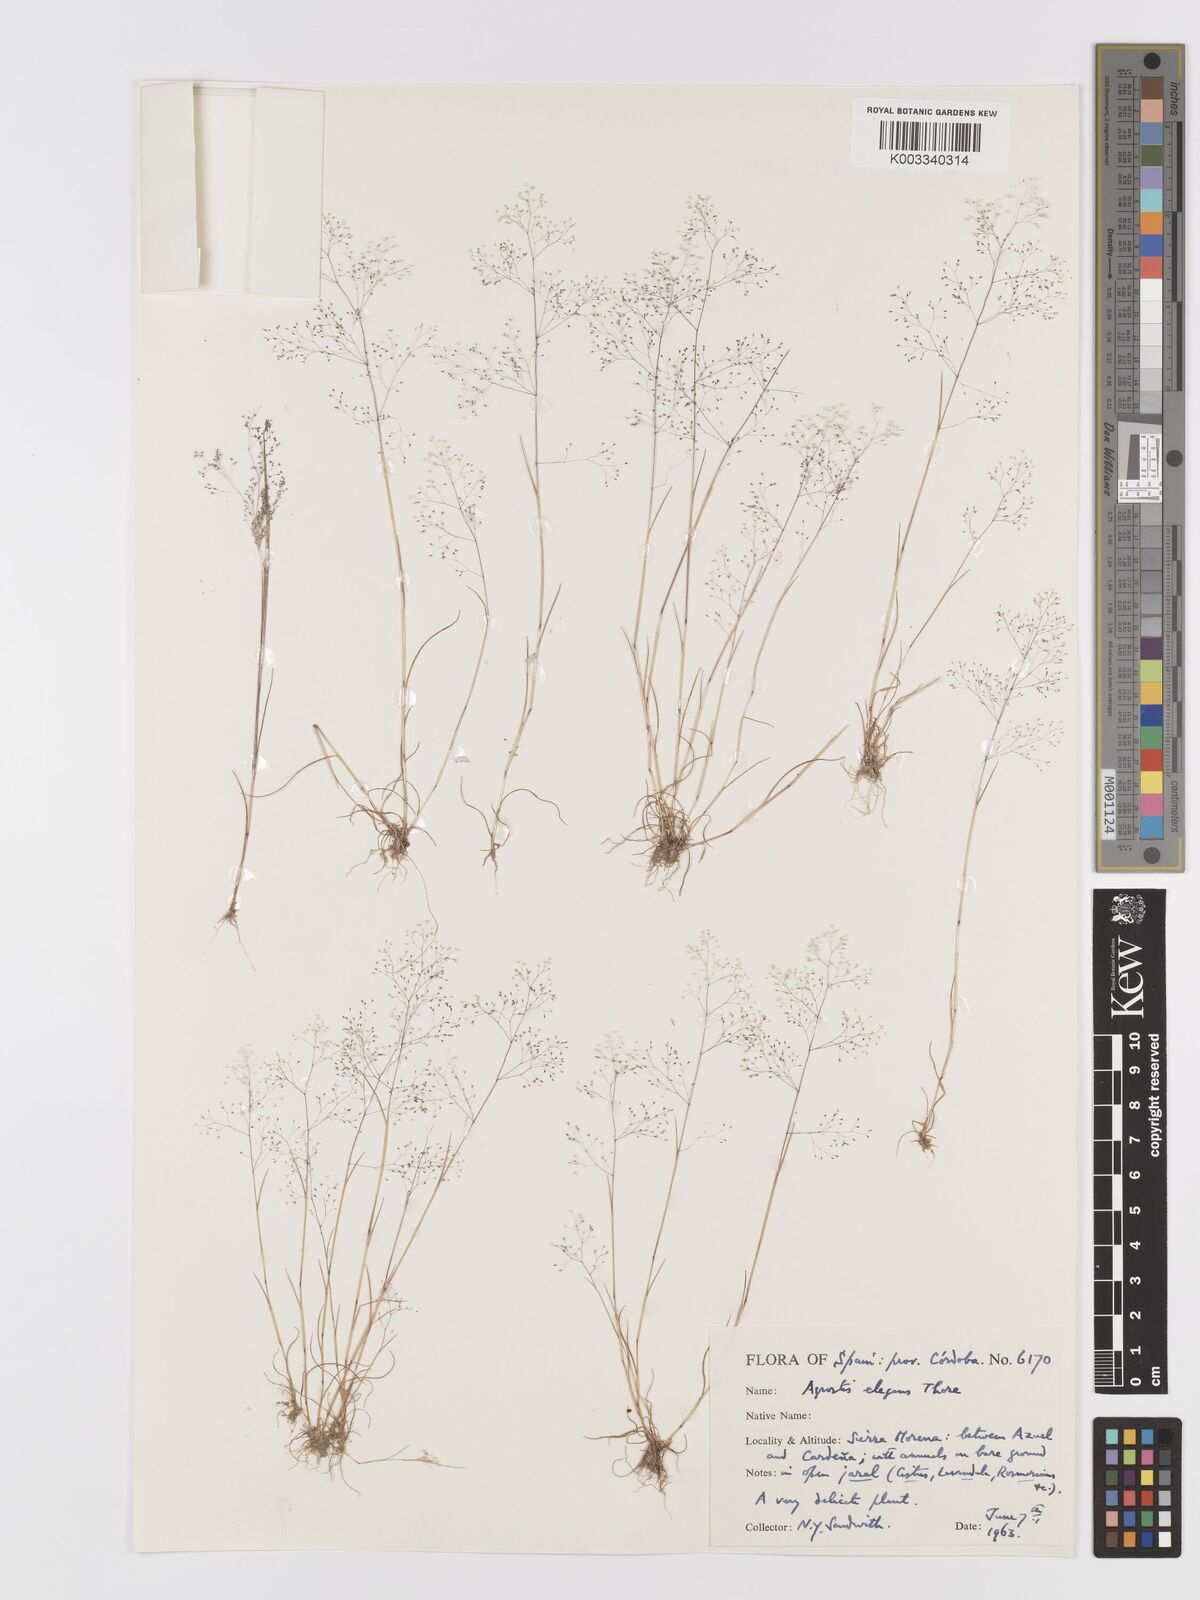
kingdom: Plantae
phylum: Tracheophyta
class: Liliopsida
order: Poales
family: Poaceae
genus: Agrostis
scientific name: Agrostis tenerrima
